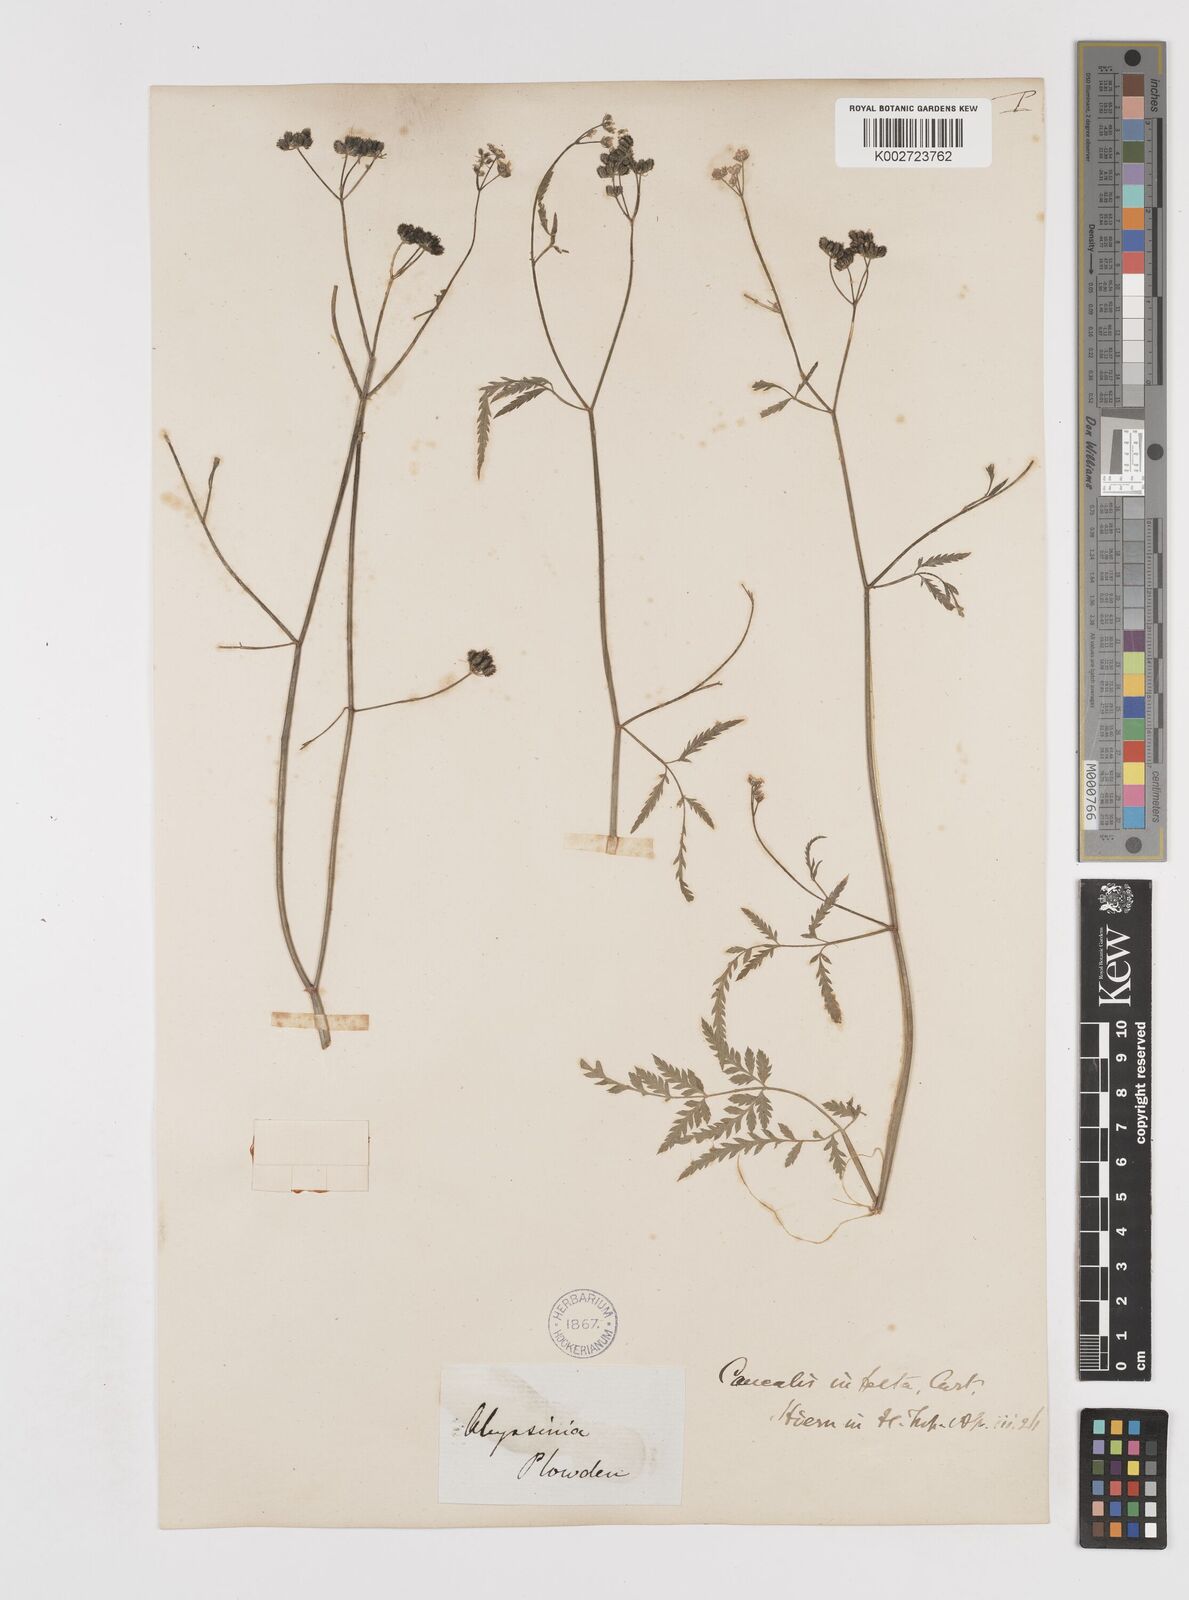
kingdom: Plantae
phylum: Tracheophyta
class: Magnoliopsida
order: Apiales
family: Apiaceae
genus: Torilis
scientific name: Torilis arvensis
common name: Spreading hedge-parsley
